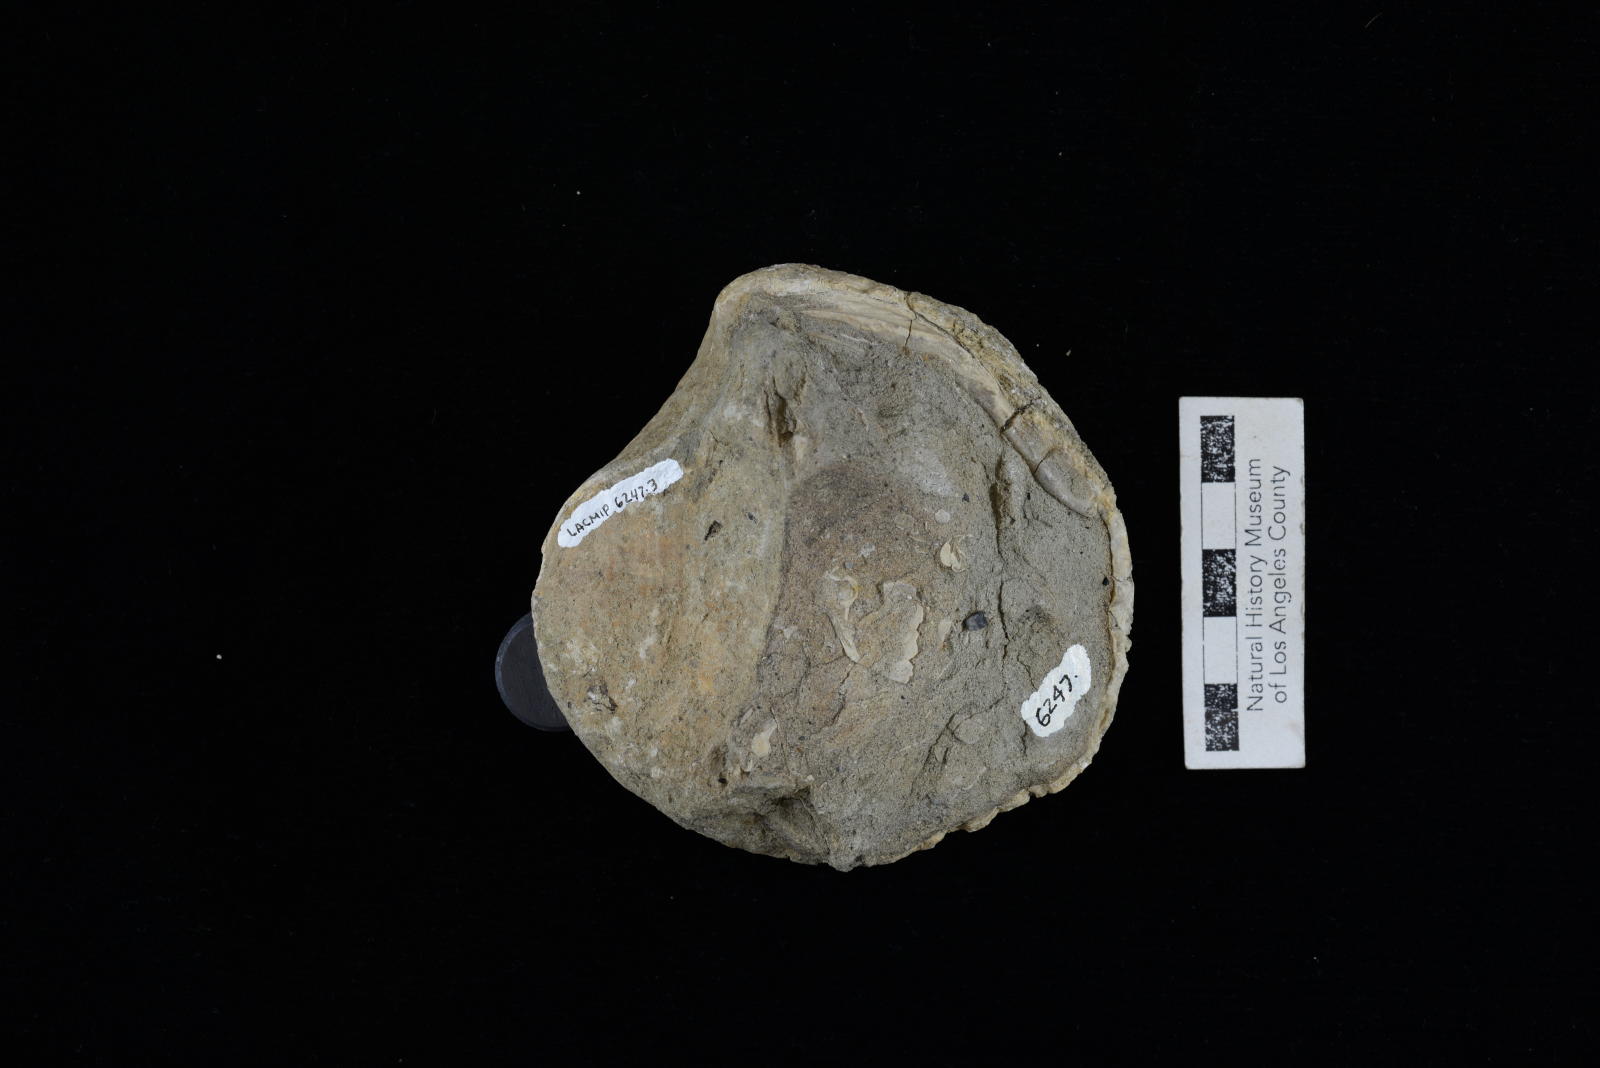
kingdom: Animalia
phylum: Mollusca
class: Bivalvia
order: Venerida
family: Veneridae
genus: Calva
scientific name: Calva Venus varians
